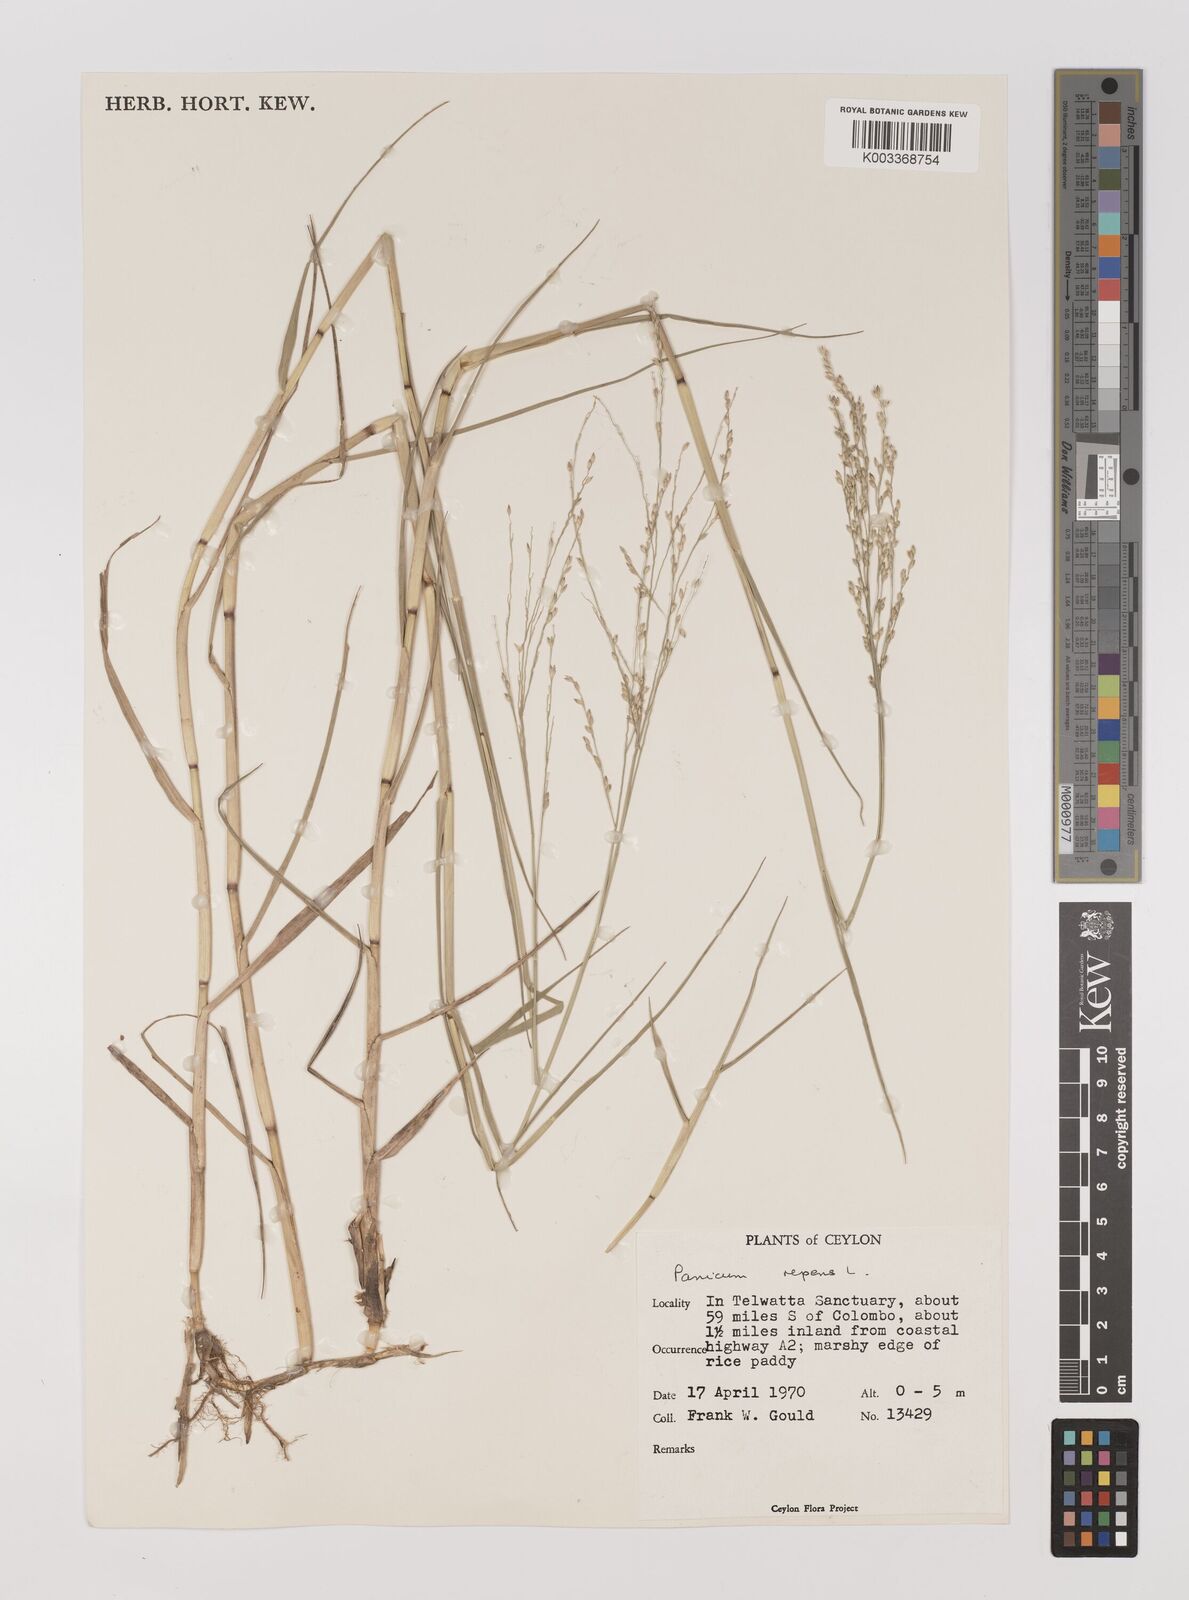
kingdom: Plantae
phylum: Tracheophyta
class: Liliopsida
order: Poales
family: Poaceae
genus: Panicum
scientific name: Panicum repens
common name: Torpedo grass
